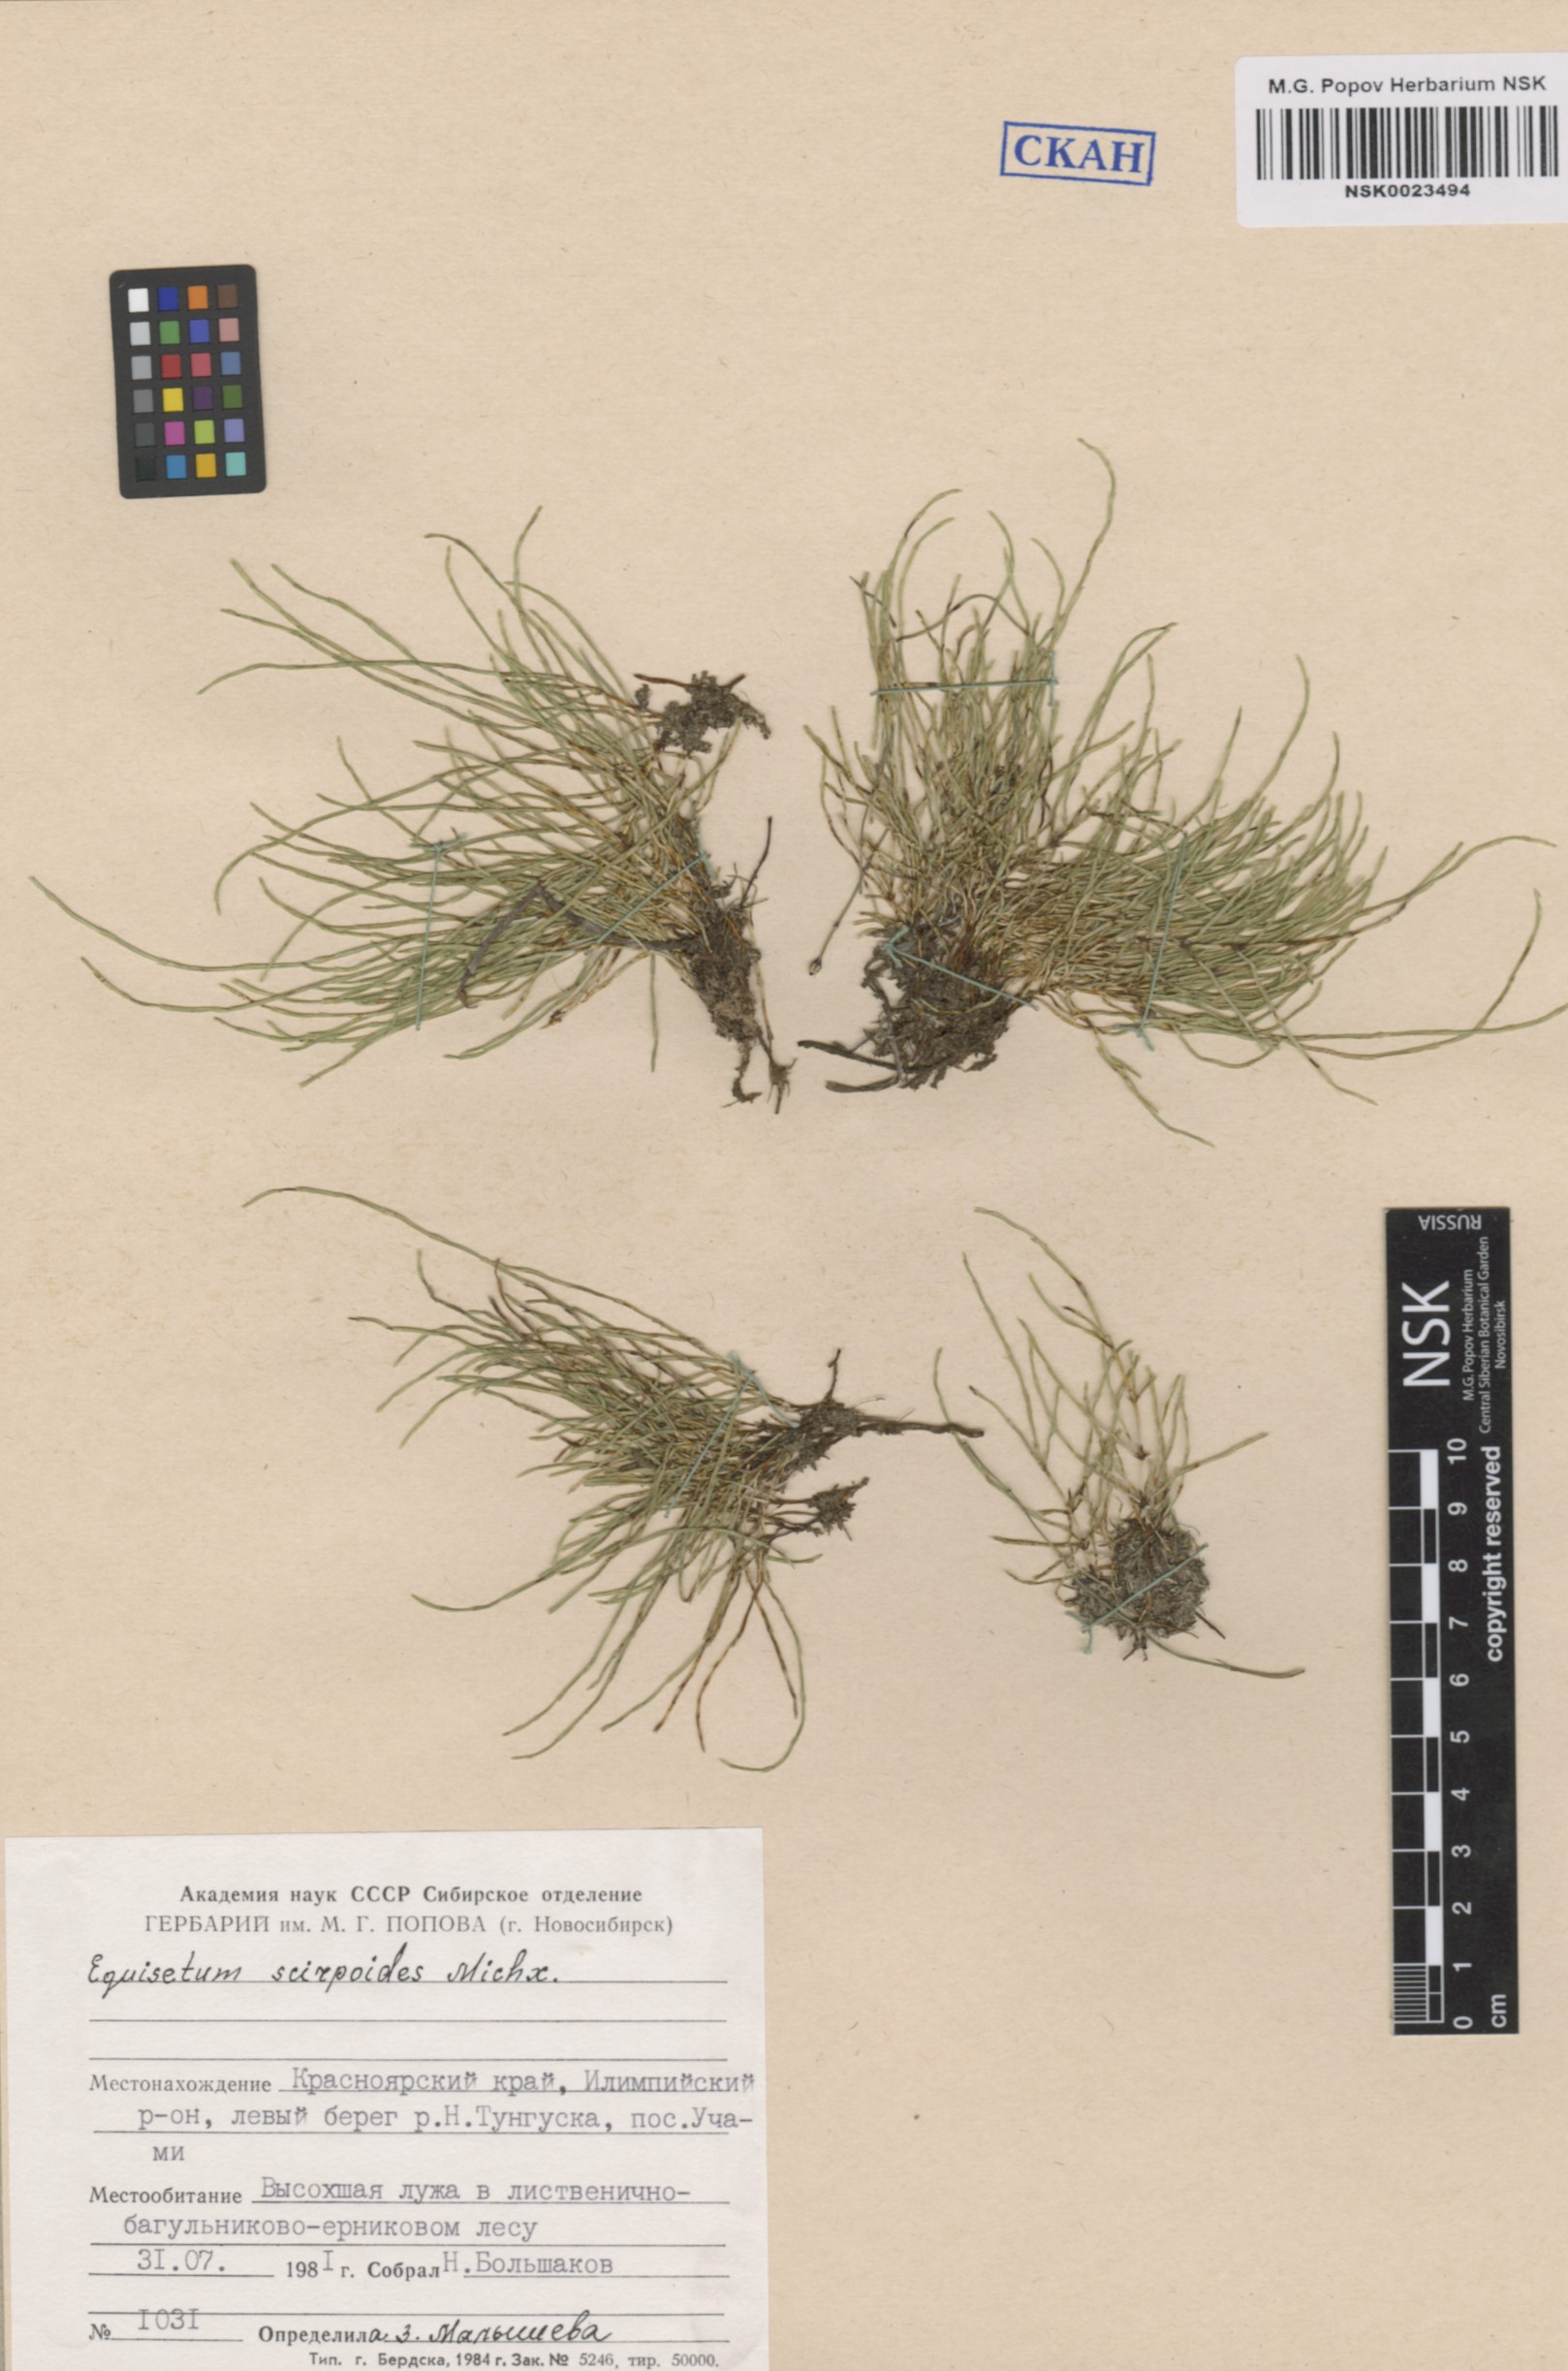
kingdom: Plantae
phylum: Tracheophyta
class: Polypodiopsida
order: Equisetales
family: Equisetaceae
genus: Equisetum
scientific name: Equisetum scirpoides
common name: Delicate horsetail
